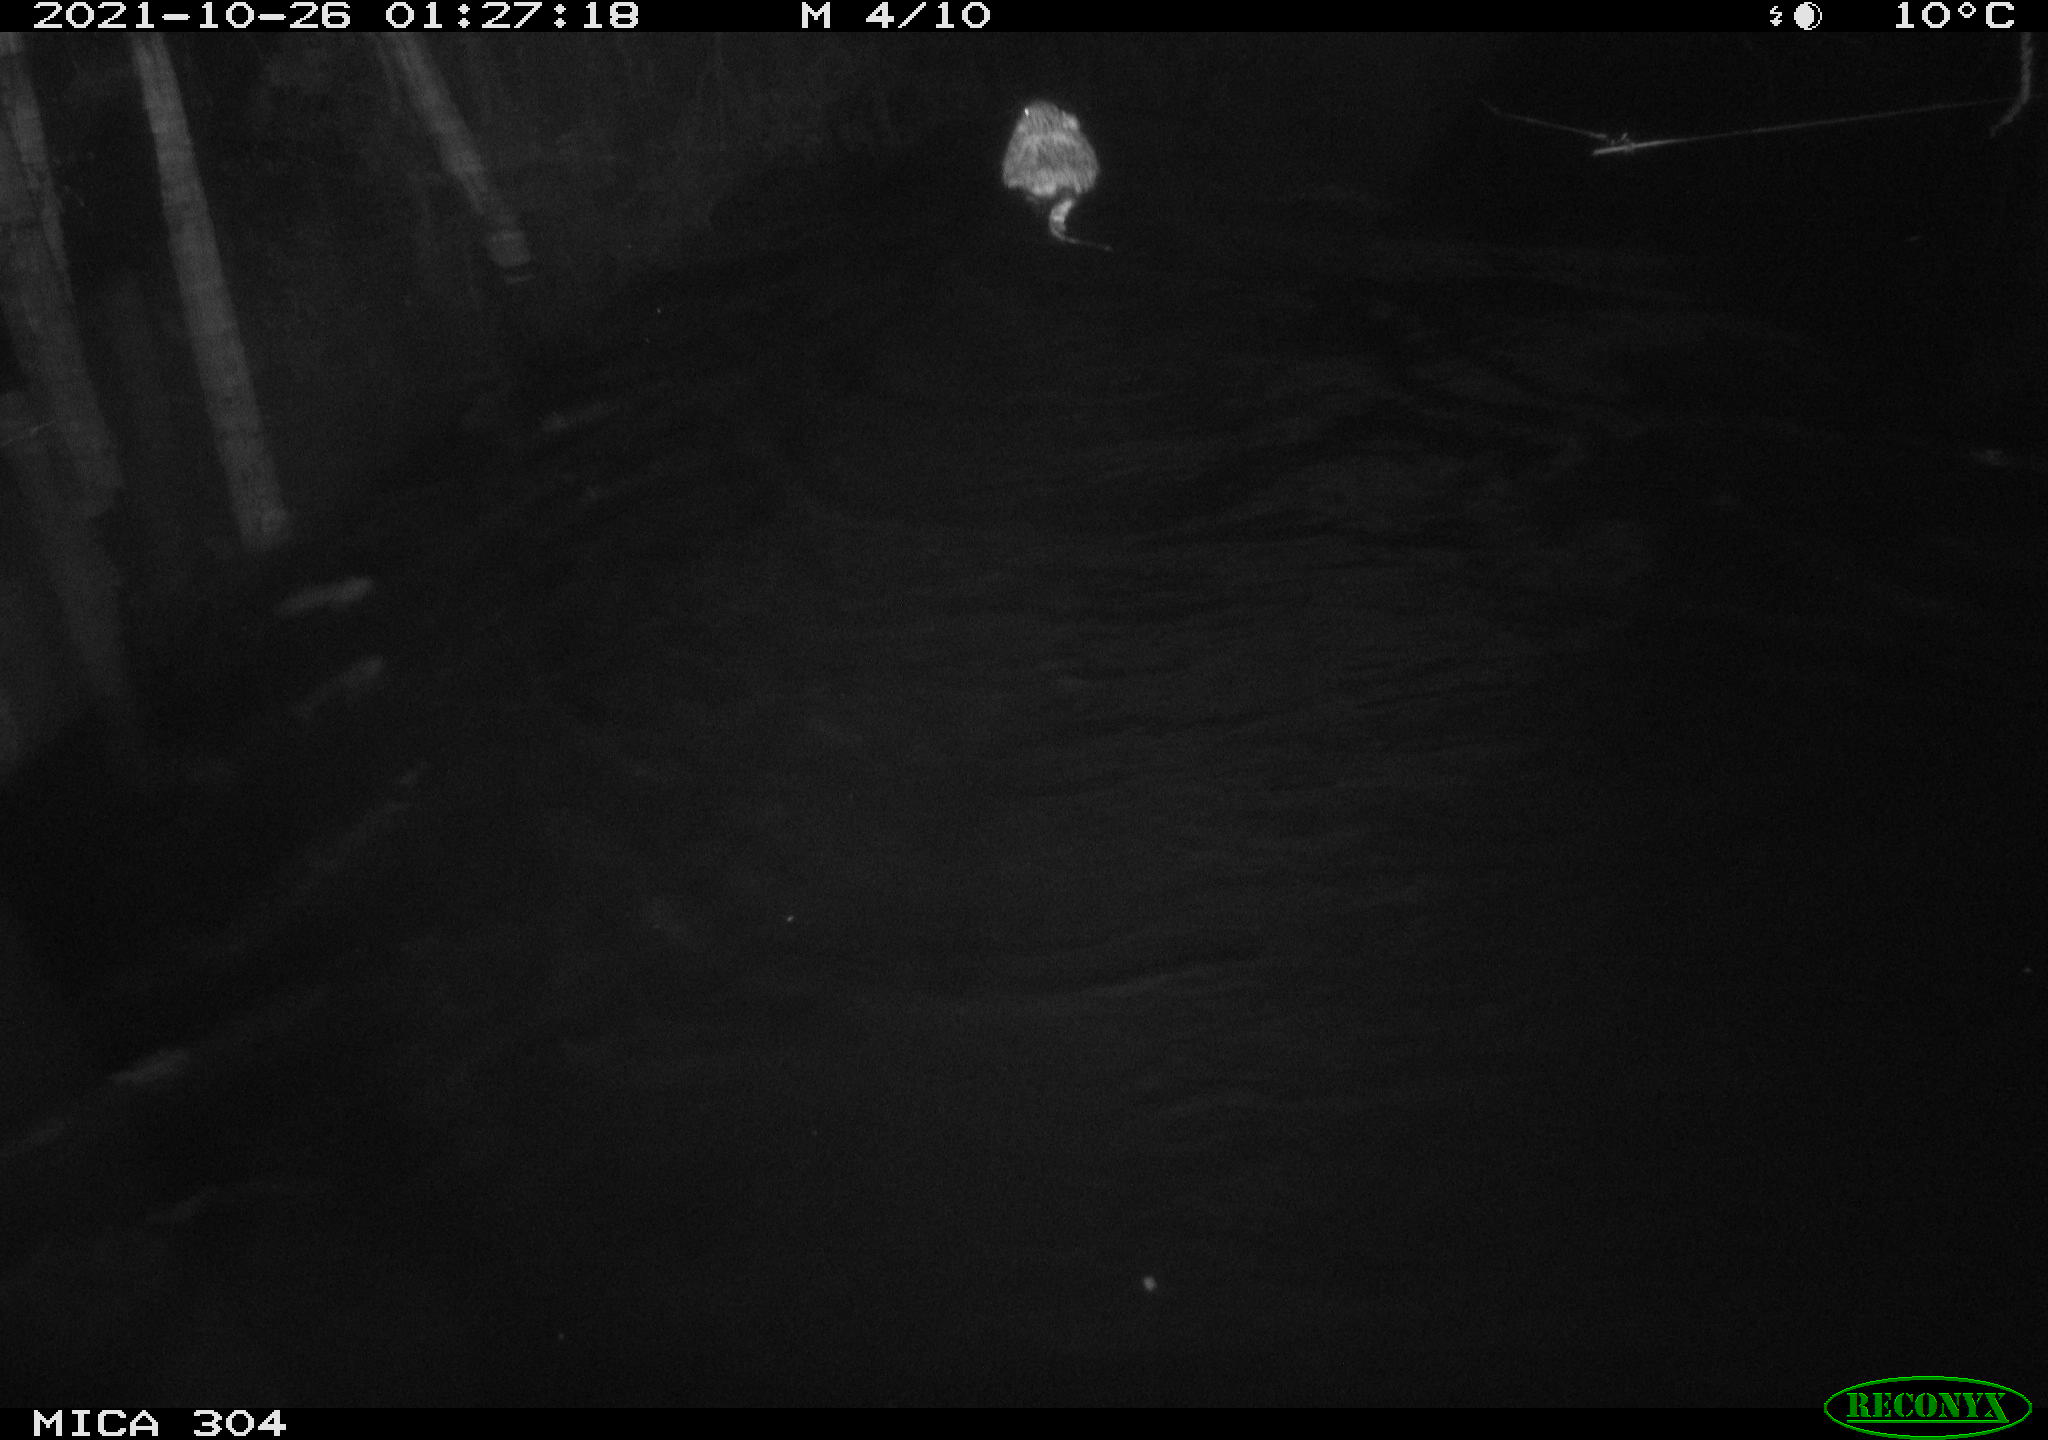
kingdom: Animalia
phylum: Chordata
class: Mammalia
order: Rodentia
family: Cricetidae
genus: Ondatra
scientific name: Ondatra zibethicus
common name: Muskrat
